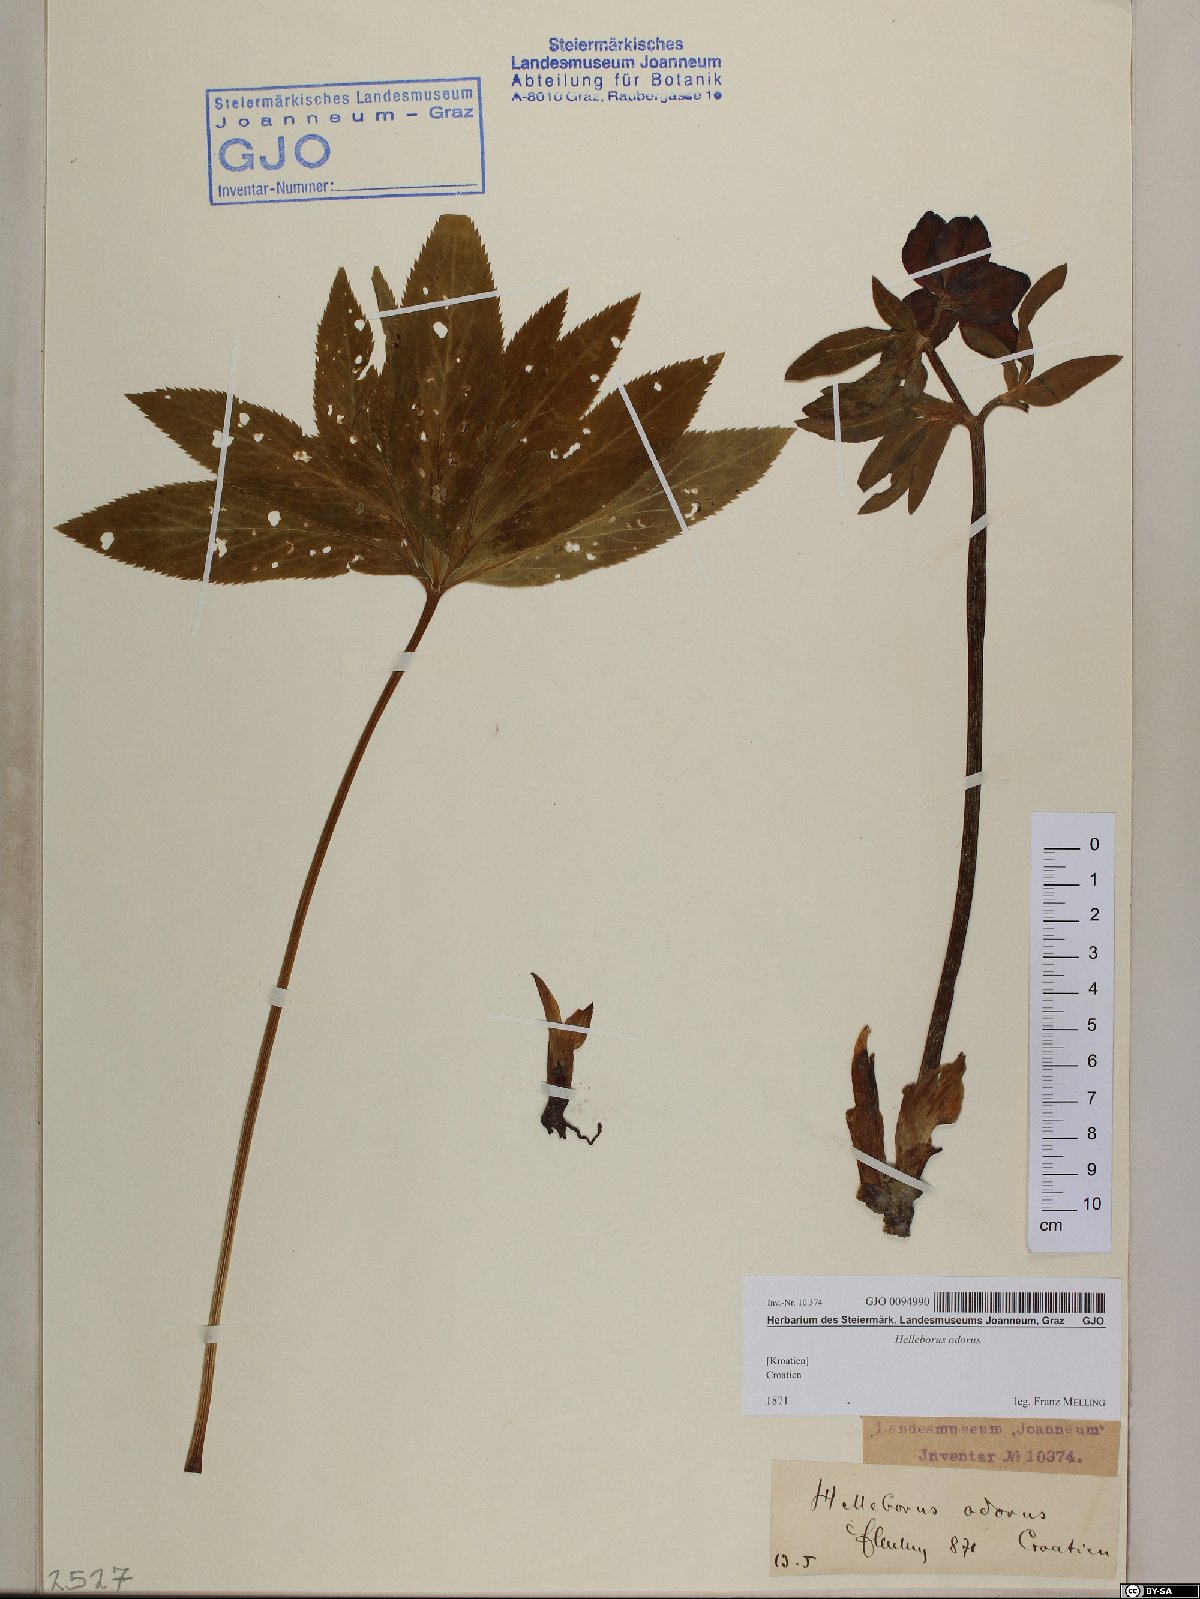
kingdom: Plantae
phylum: Tracheophyta
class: Magnoliopsida
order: Ranunculales
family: Ranunculaceae
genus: Helleborus
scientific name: Helleborus odorus
